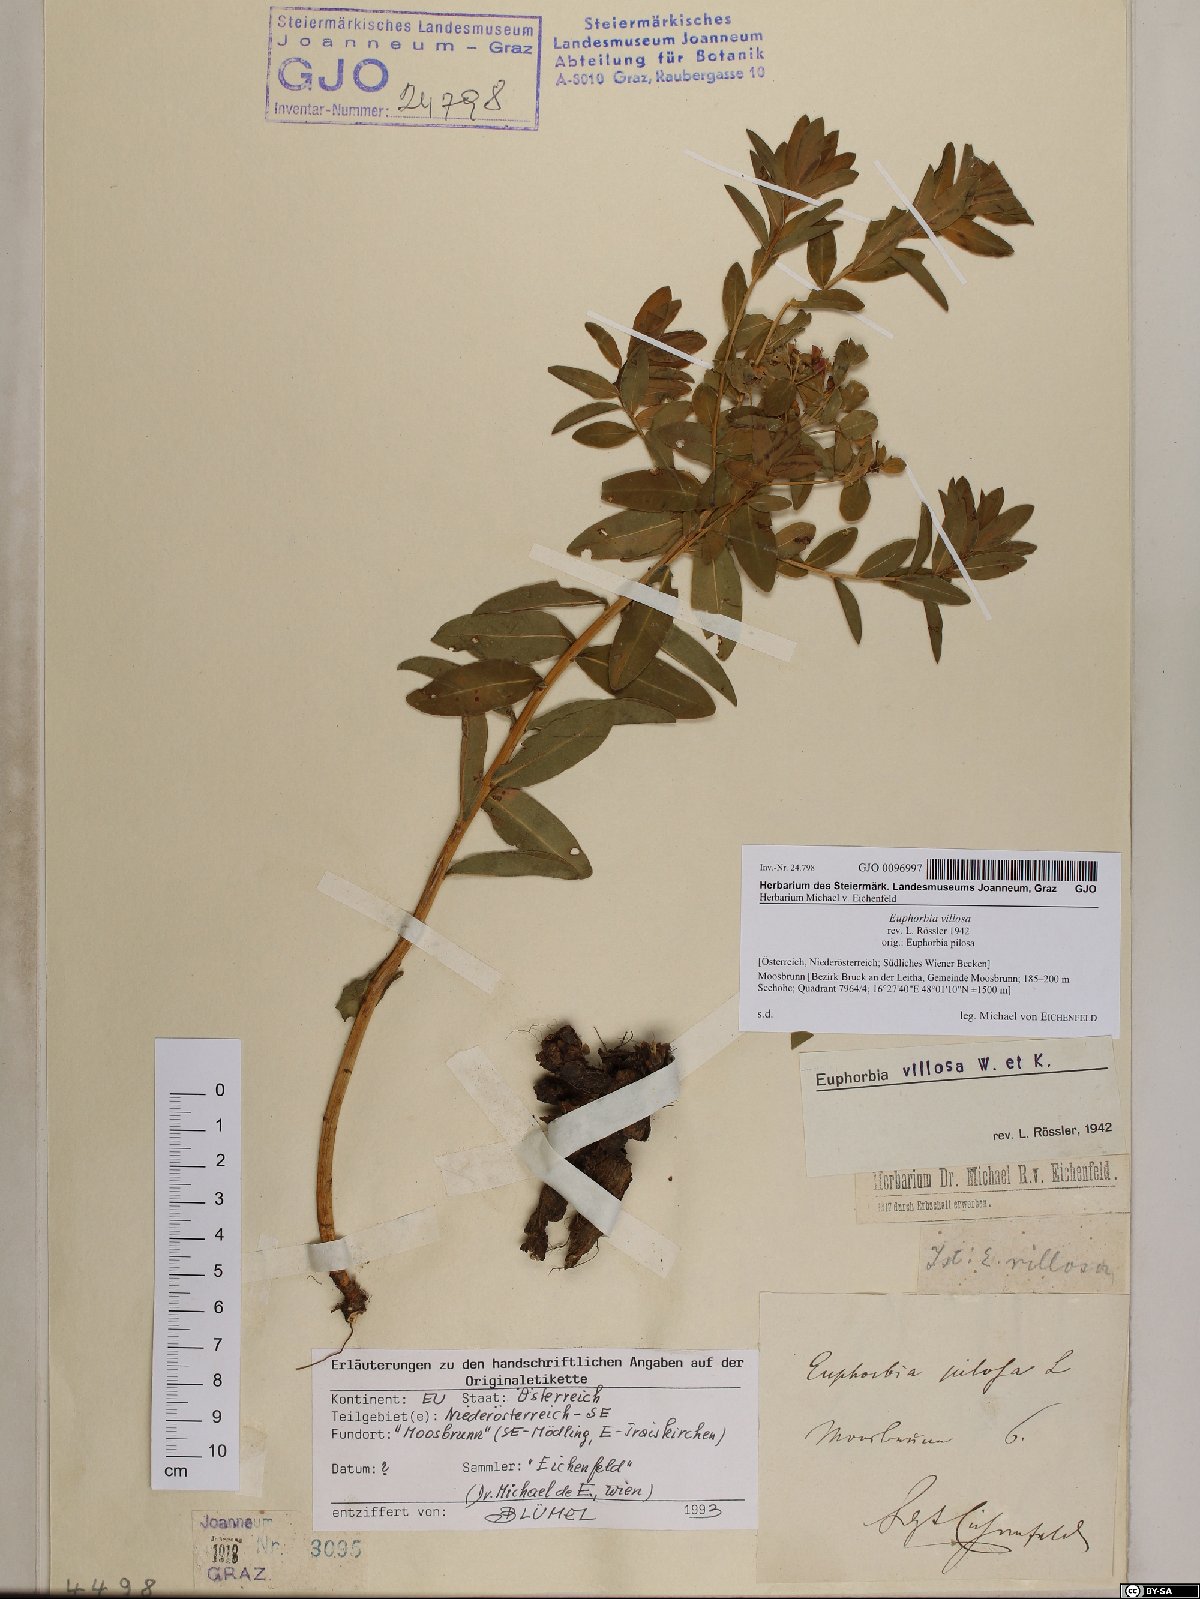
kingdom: Plantae
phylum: Tracheophyta
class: Magnoliopsida
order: Malpighiales
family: Euphorbiaceae
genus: Euphorbia
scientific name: Euphorbia illirica
